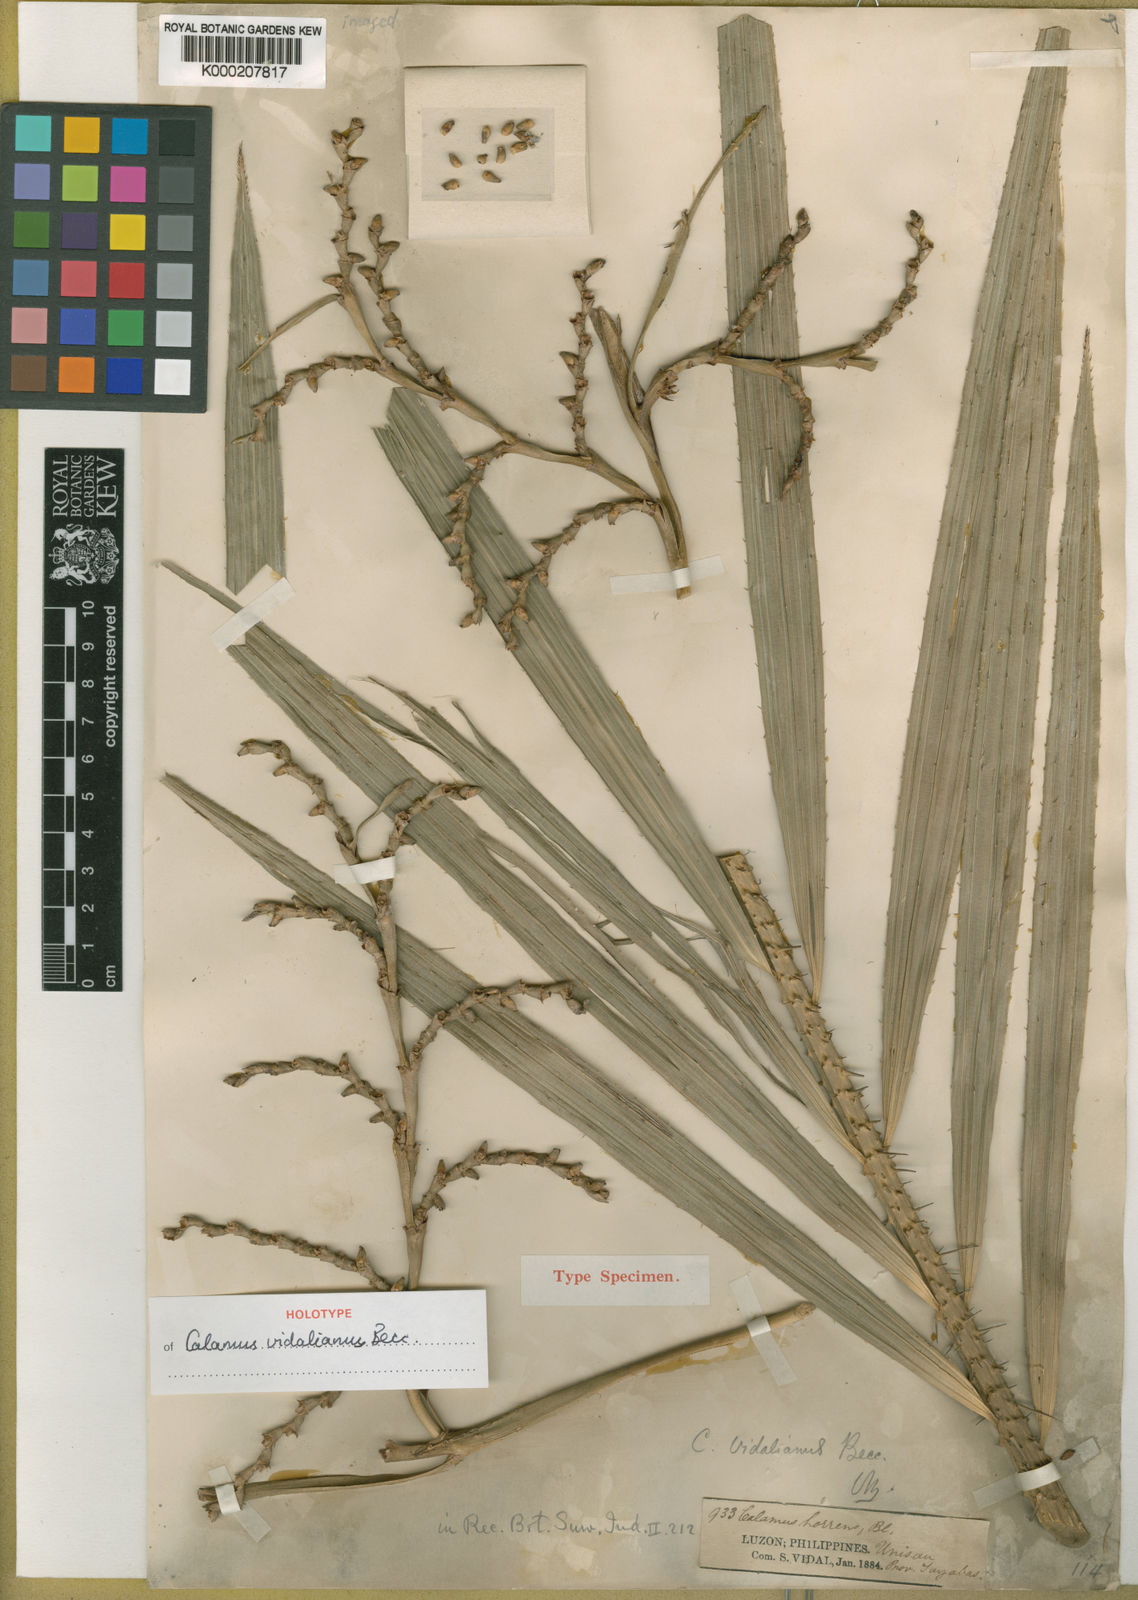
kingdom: Plantae
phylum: Tracheophyta
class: Liliopsida
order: Arecales
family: Arecaceae
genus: Calamus
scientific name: Calamus vidalianus
